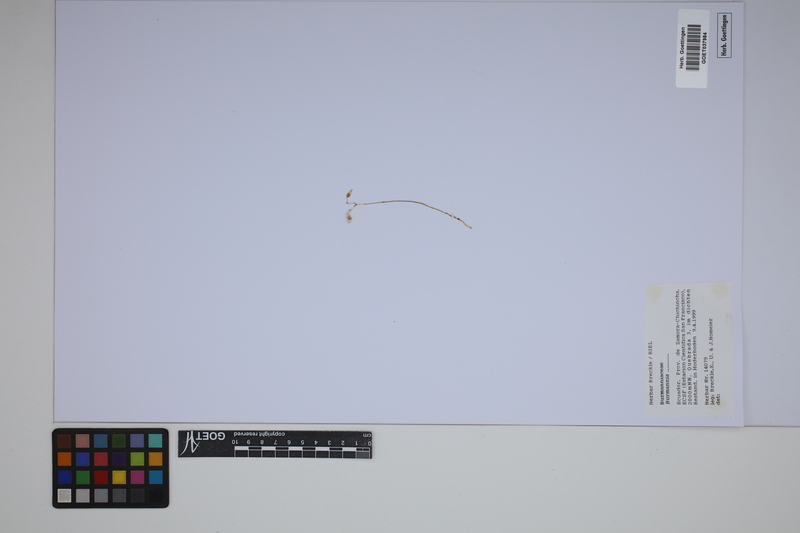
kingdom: Plantae
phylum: Tracheophyta
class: Liliopsida
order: Dioscoreales
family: Burmanniaceae
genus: Burmannia
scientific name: Burmannia
